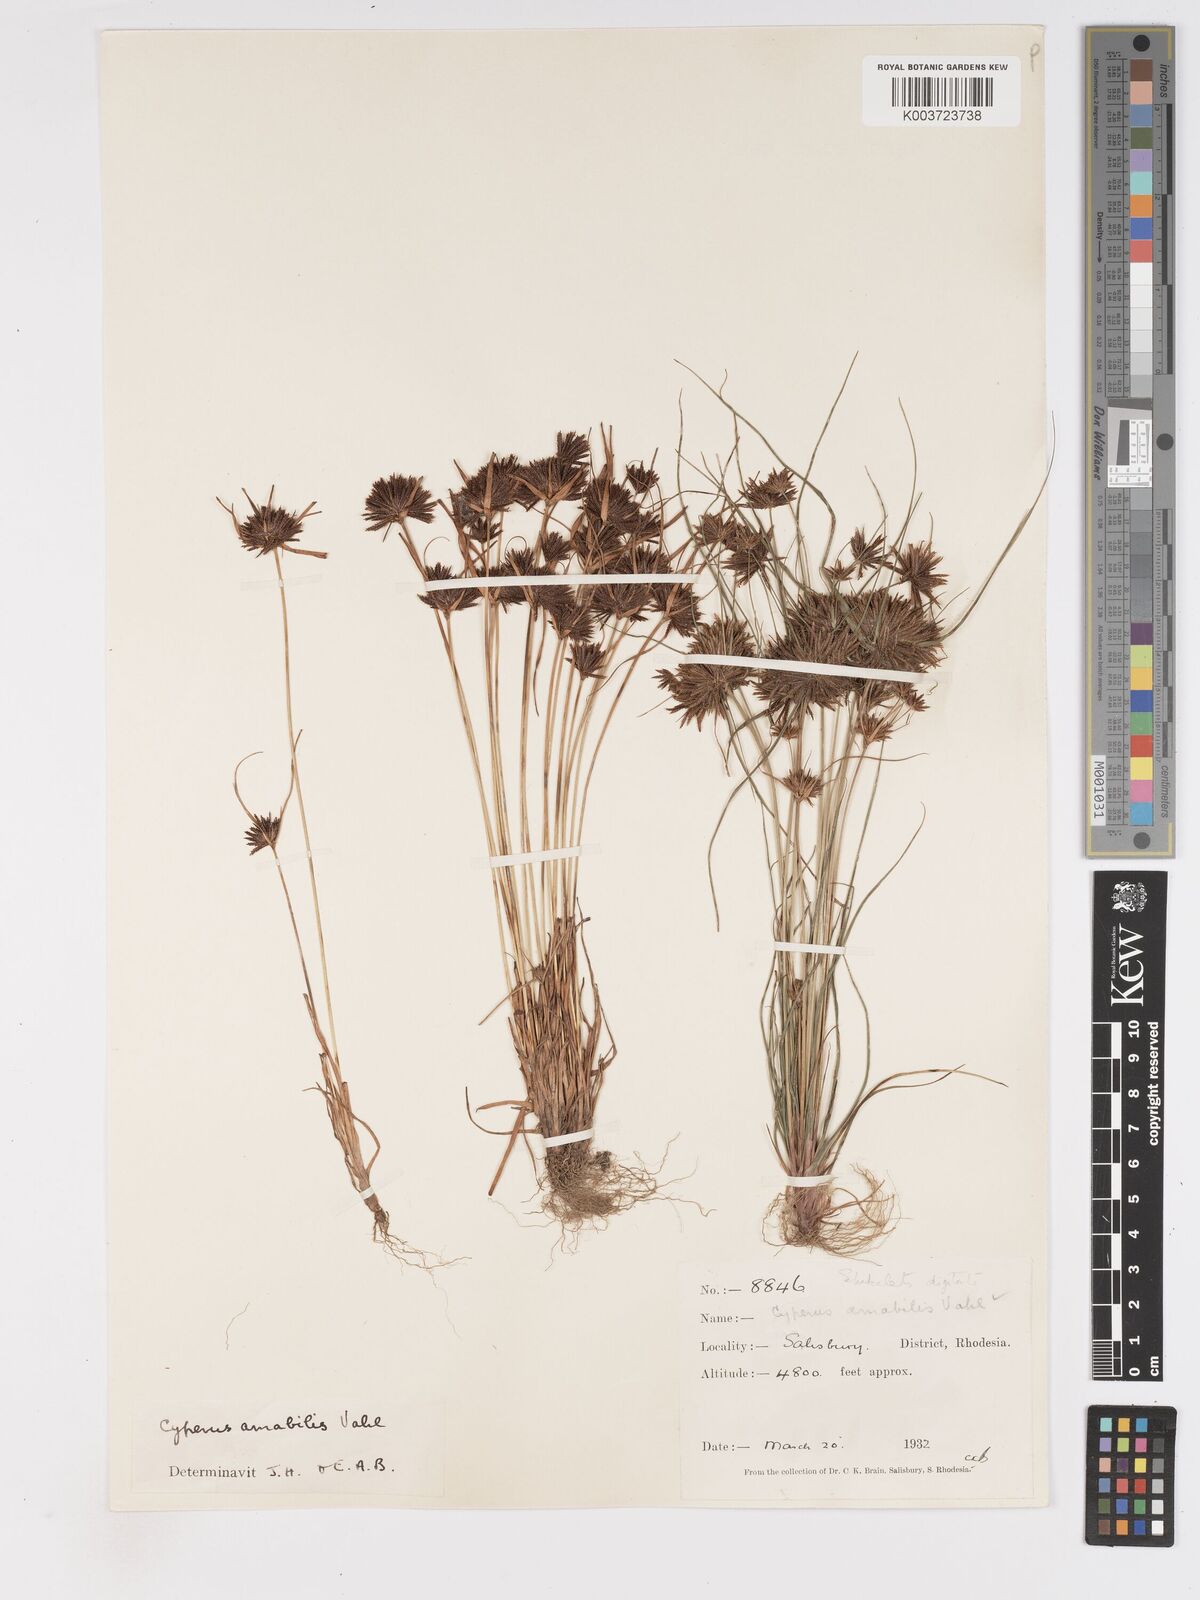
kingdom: Plantae
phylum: Tracheophyta
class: Liliopsida
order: Poales
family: Cyperaceae
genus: Cyperus
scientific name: Cyperus amabilis
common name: Foothill flat sedge
